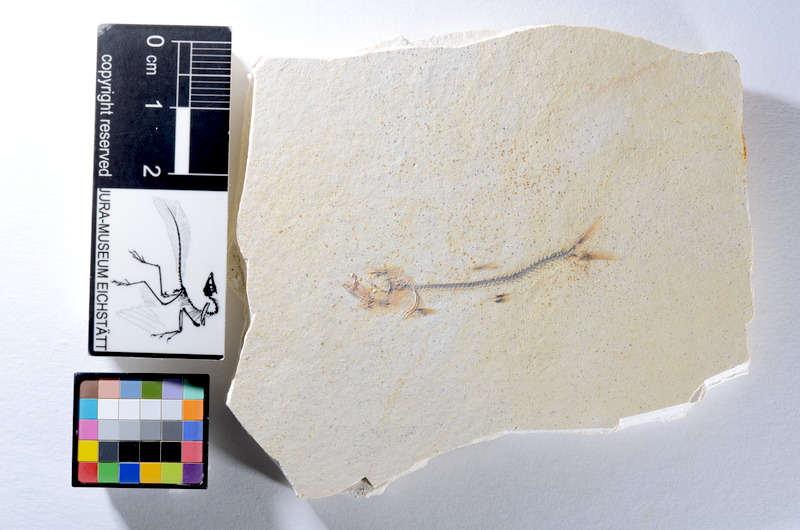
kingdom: Animalia
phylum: Chordata
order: Salmoniformes
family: Orthogonikleithridae
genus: Orthogonikleithrus
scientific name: Orthogonikleithrus hoelli
